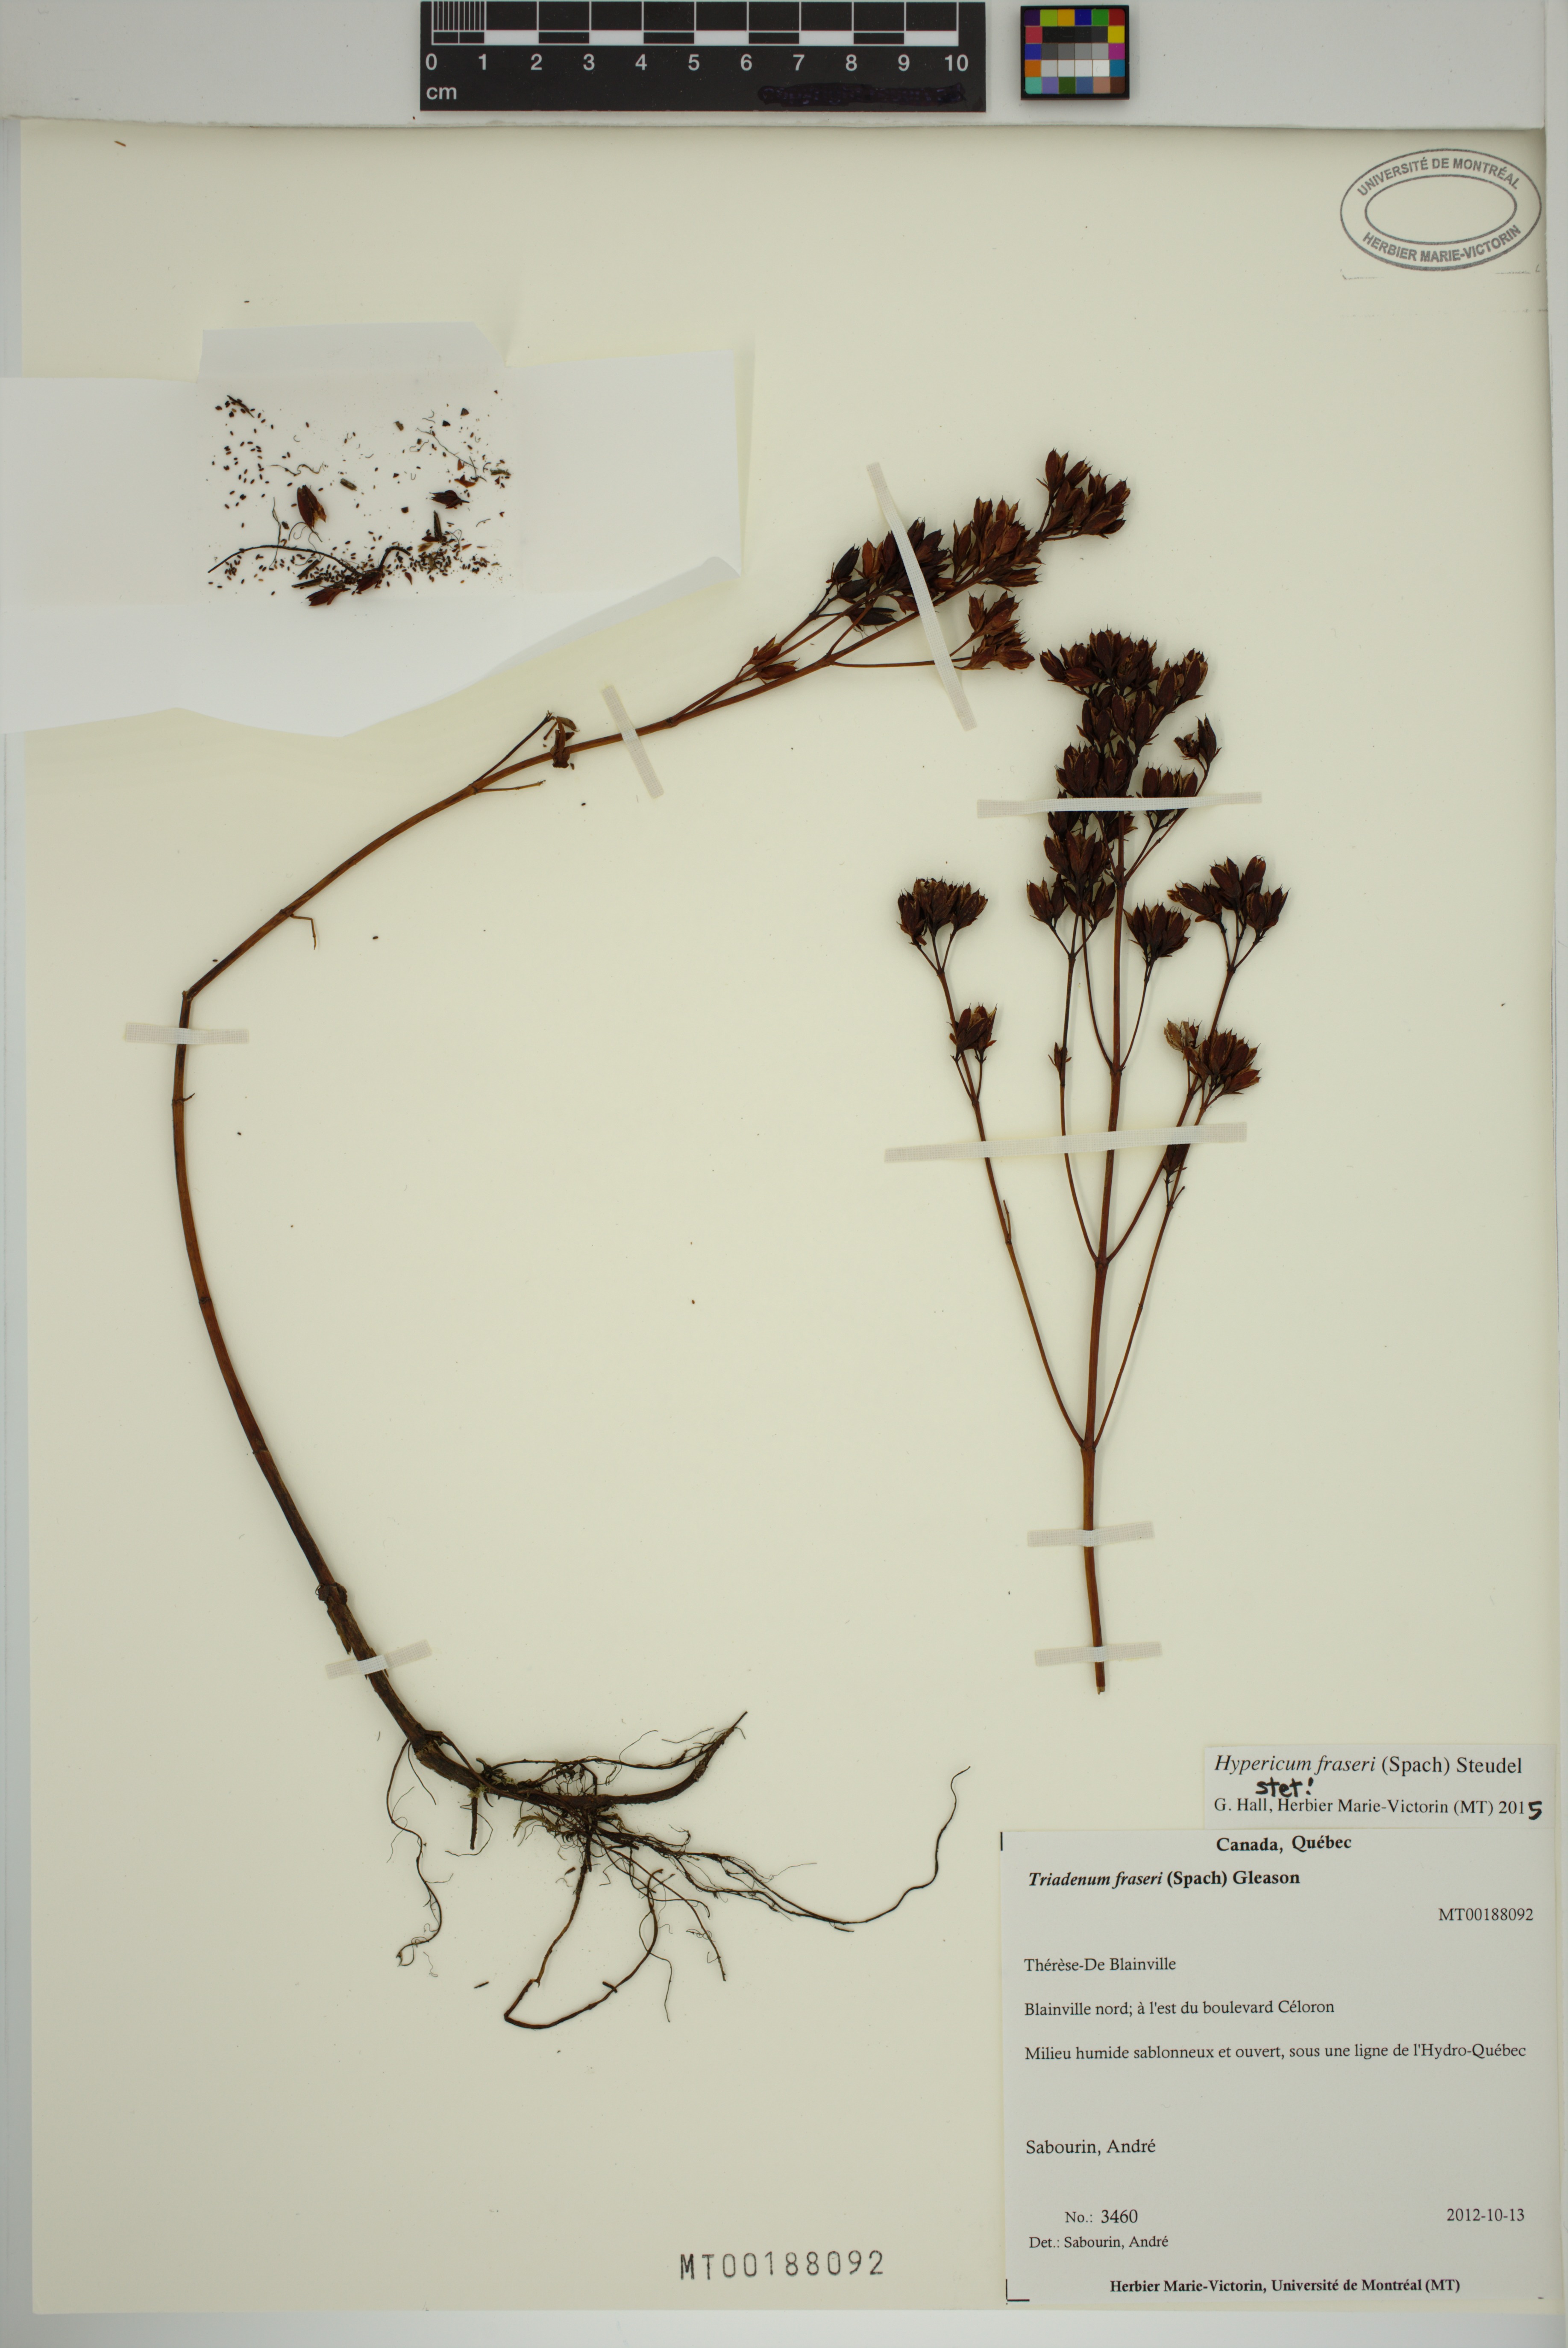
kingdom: Plantae
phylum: Tracheophyta
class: Magnoliopsida
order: Malpighiales
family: Hypericaceae
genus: Triadenum
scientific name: Triadenum fraseri
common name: Fraser's marsh st. johnswort
